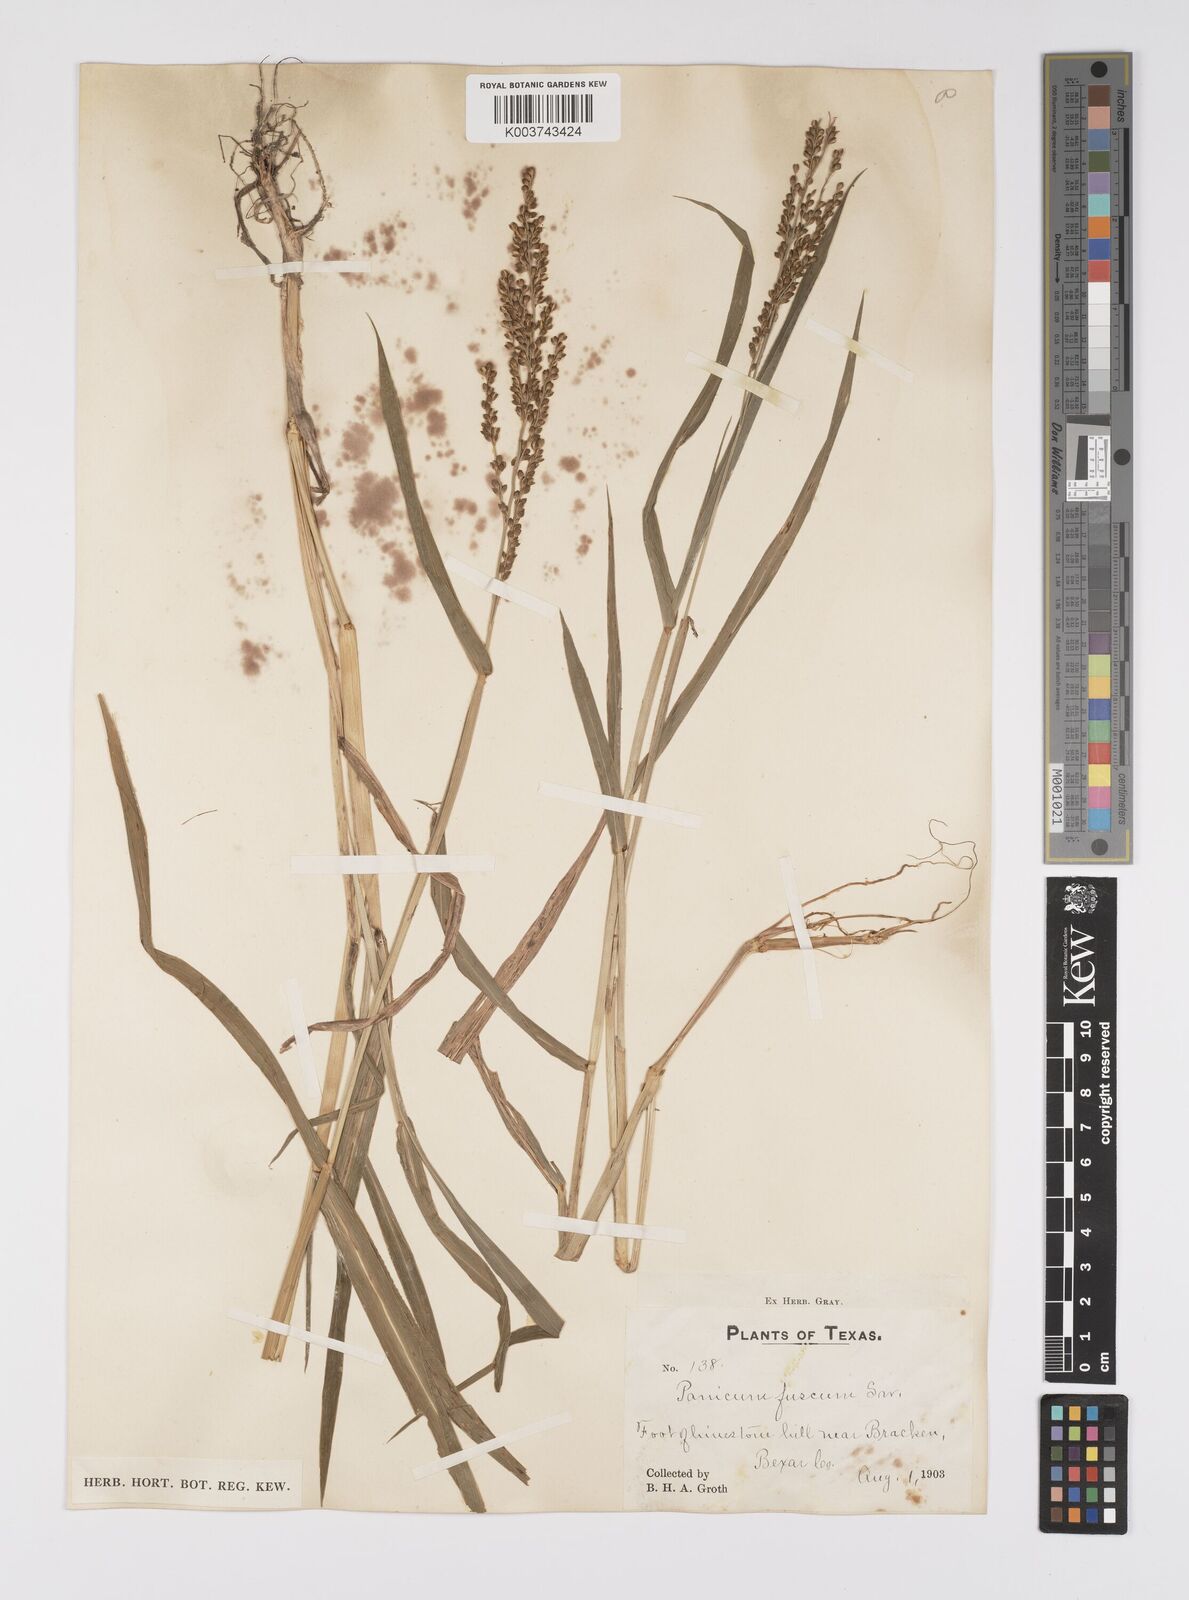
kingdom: Plantae
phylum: Tracheophyta
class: Liliopsida
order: Poales
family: Poaceae
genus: Urochloa
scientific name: Urochloa fusca
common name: Browntop signal grass
